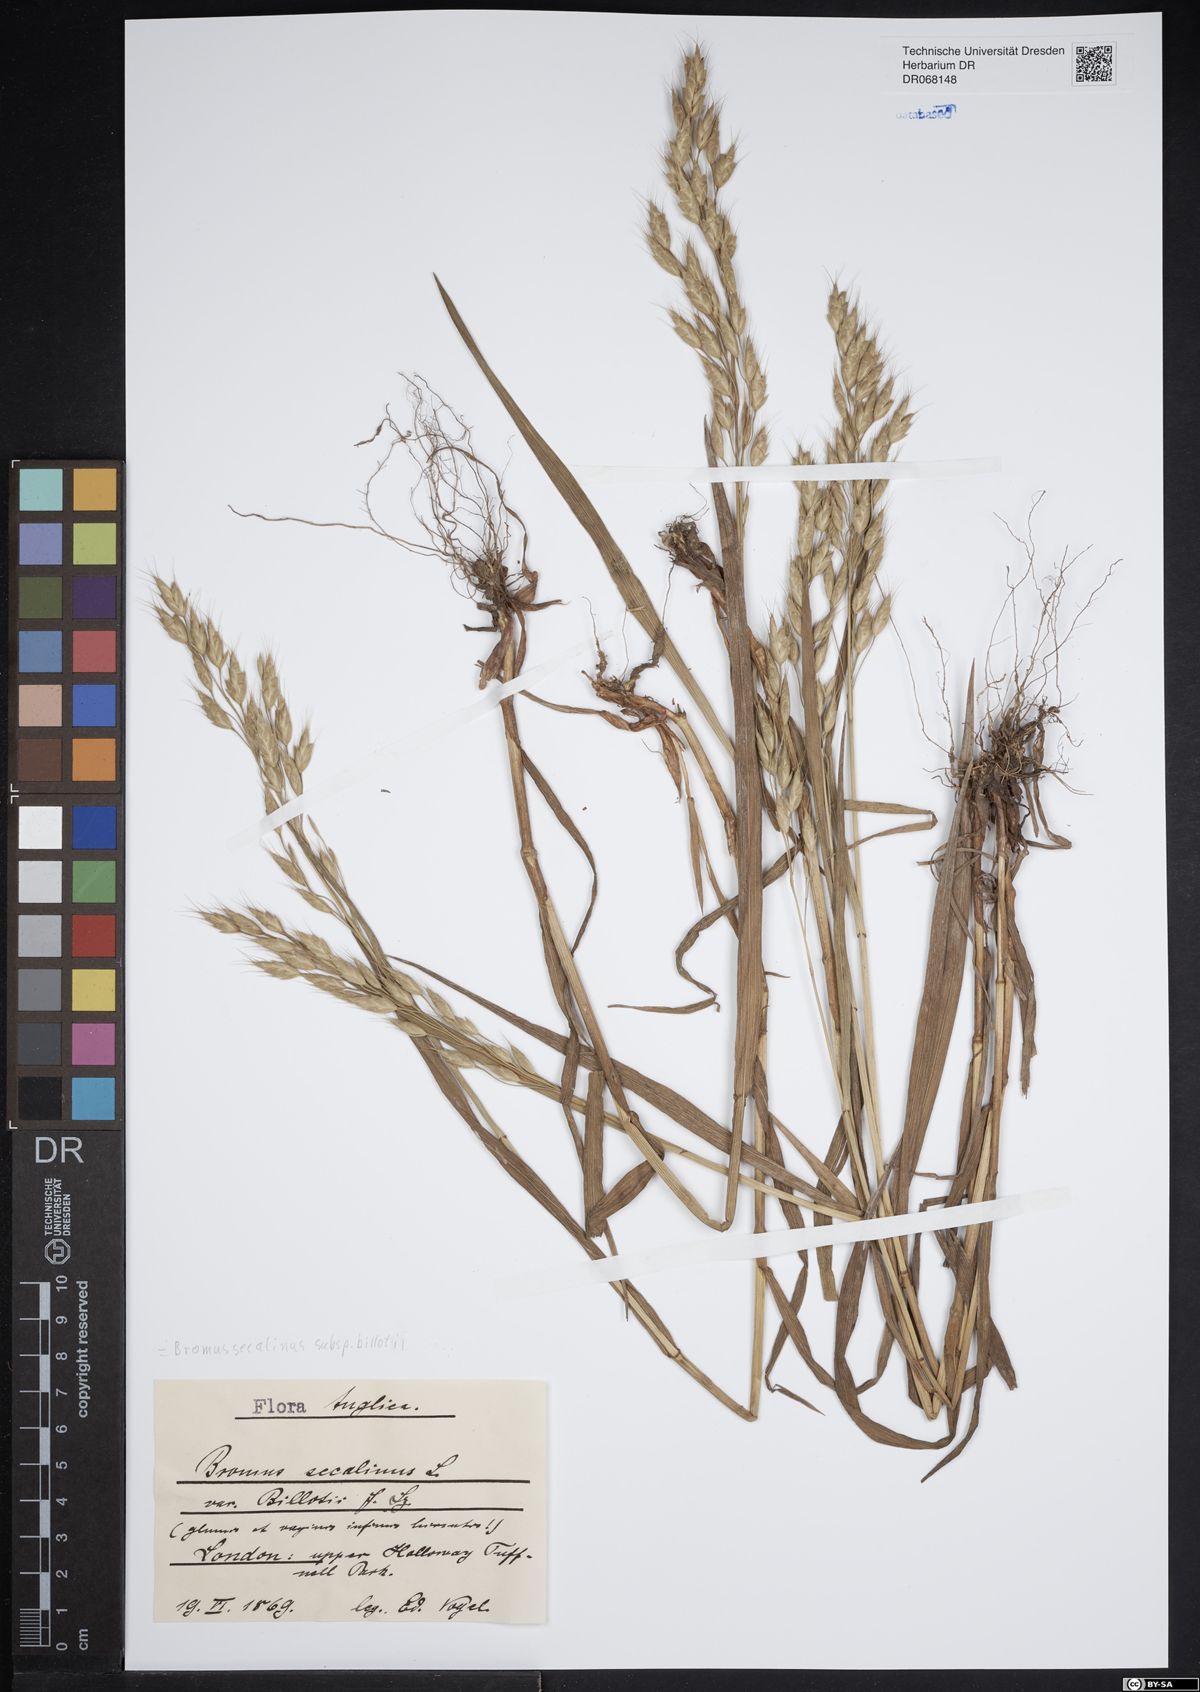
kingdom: Plantae
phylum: Tracheophyta
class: Liliopsida
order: Poales
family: Poaceae
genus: Bromus
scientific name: Bromus arvensis
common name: Field brome
